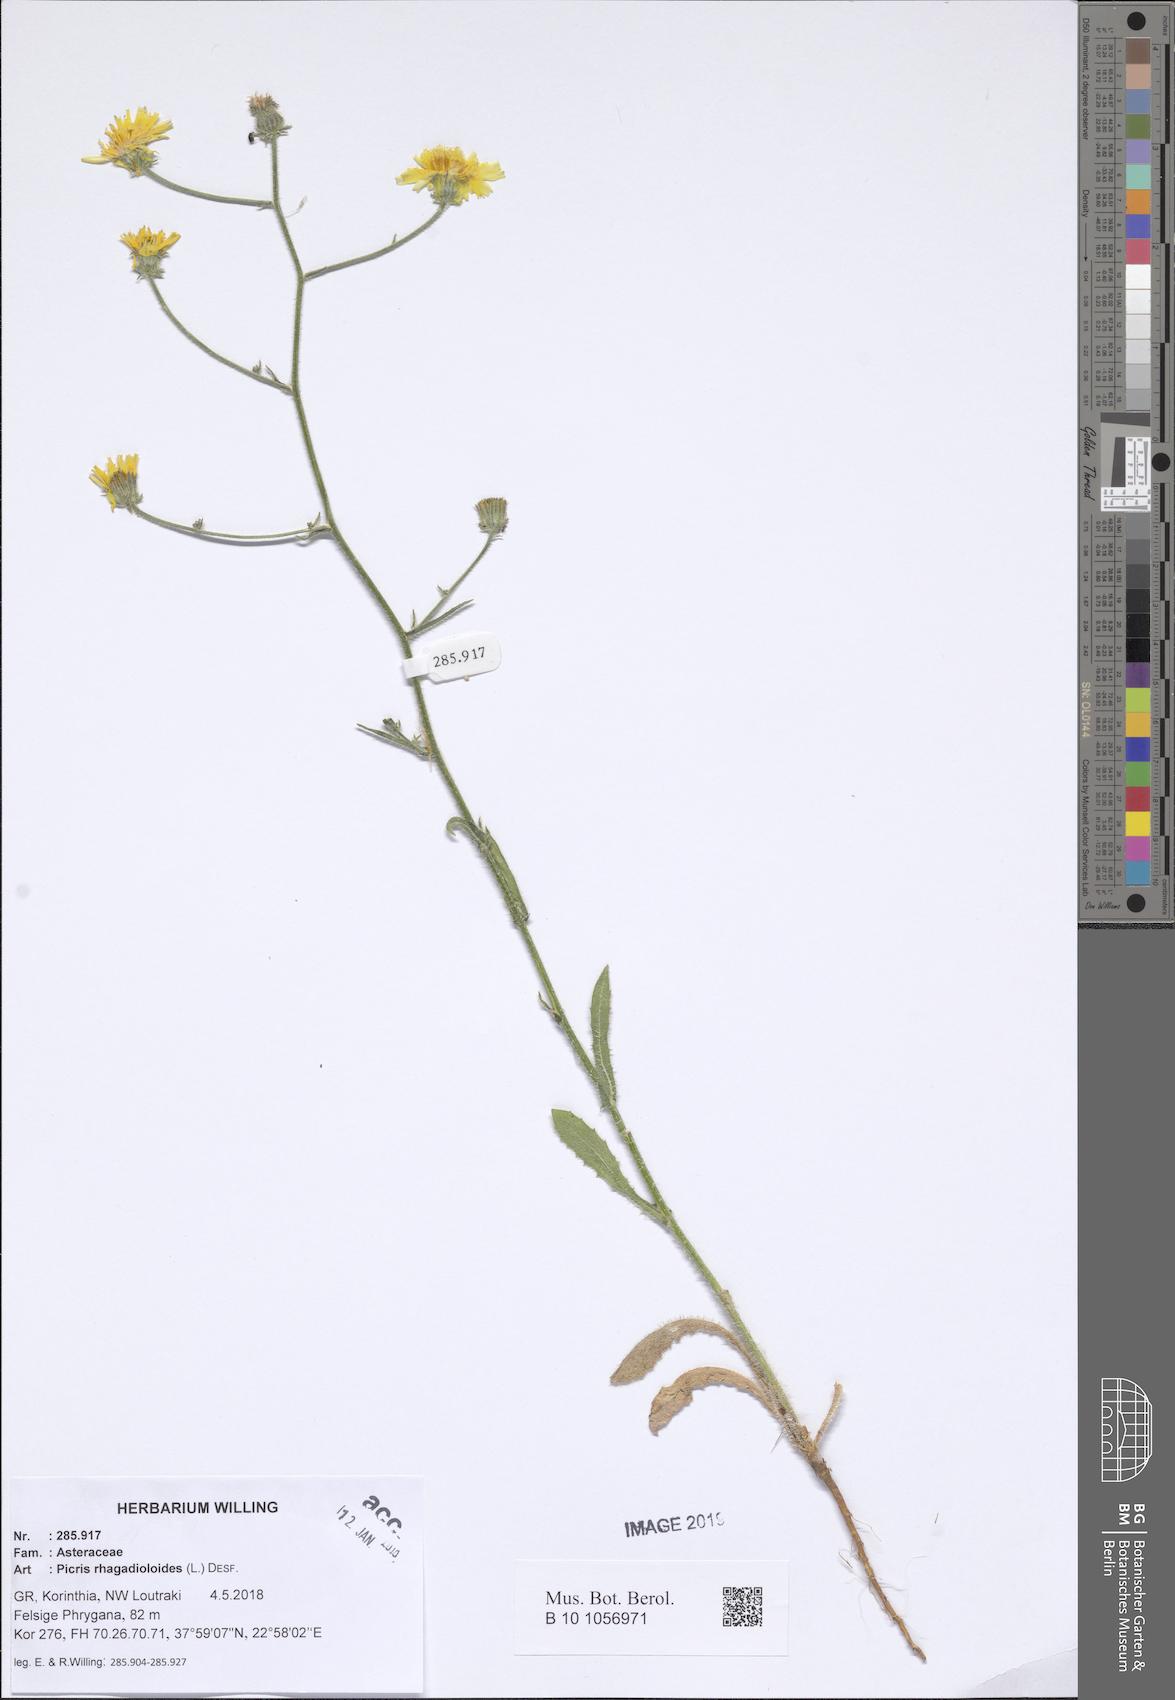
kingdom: Plantae
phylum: Tracheophyta
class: Magnoliopsida
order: Asterales
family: Asteraceae
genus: Picris
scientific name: Picris rhagadioloides
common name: Oxtongue
